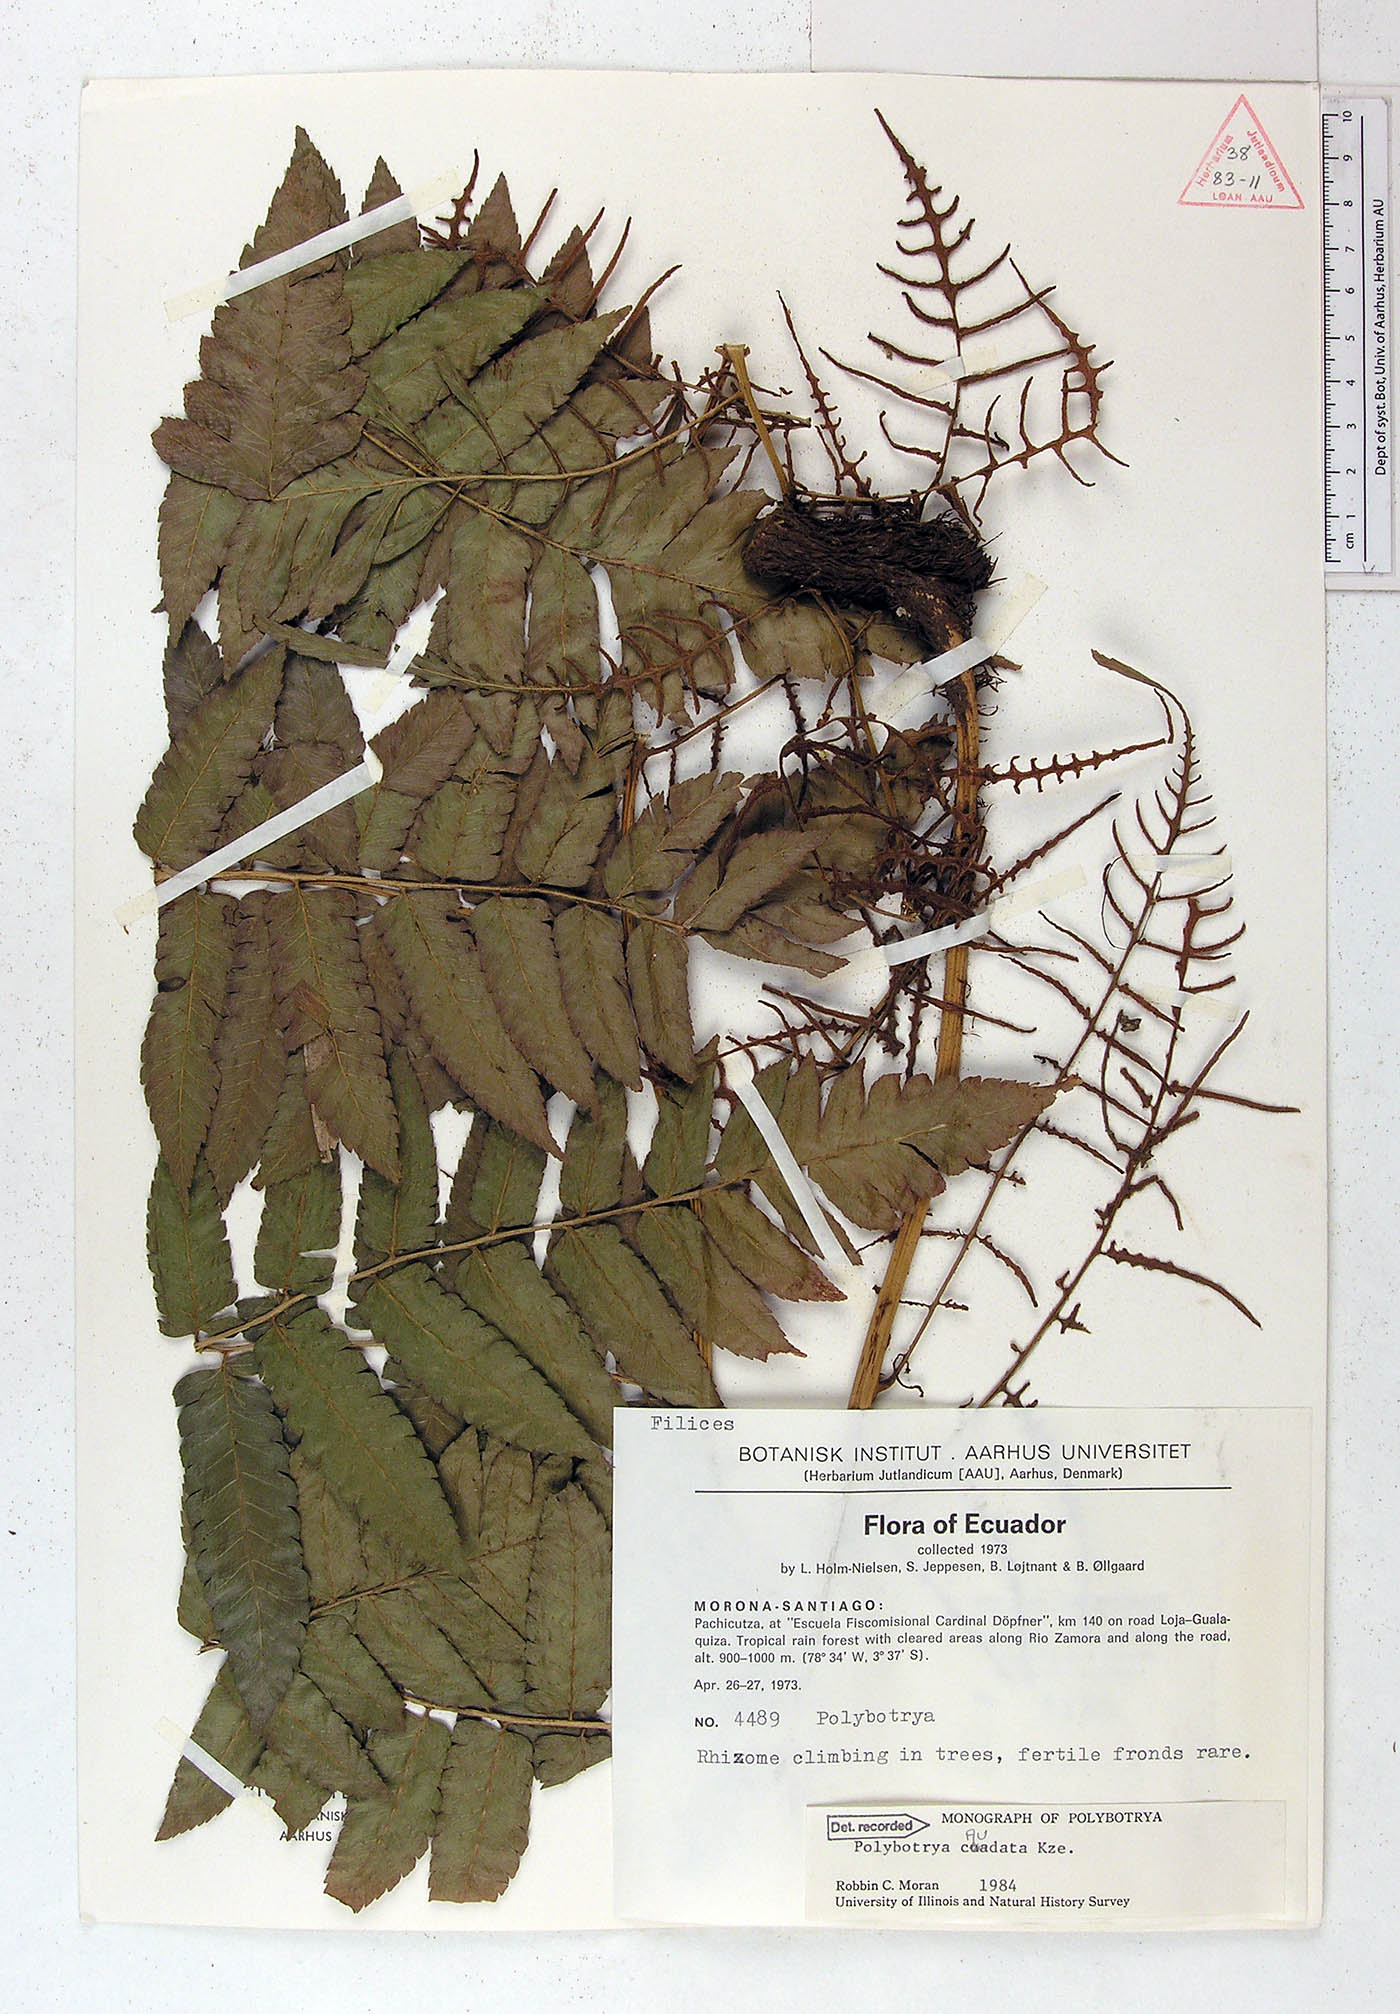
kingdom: Plantae
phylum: Tracheophyta
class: Polypodiopsida
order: Polypodiales
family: Dryopteridaceae
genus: Polybotrya
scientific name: Polybotrya caudata
